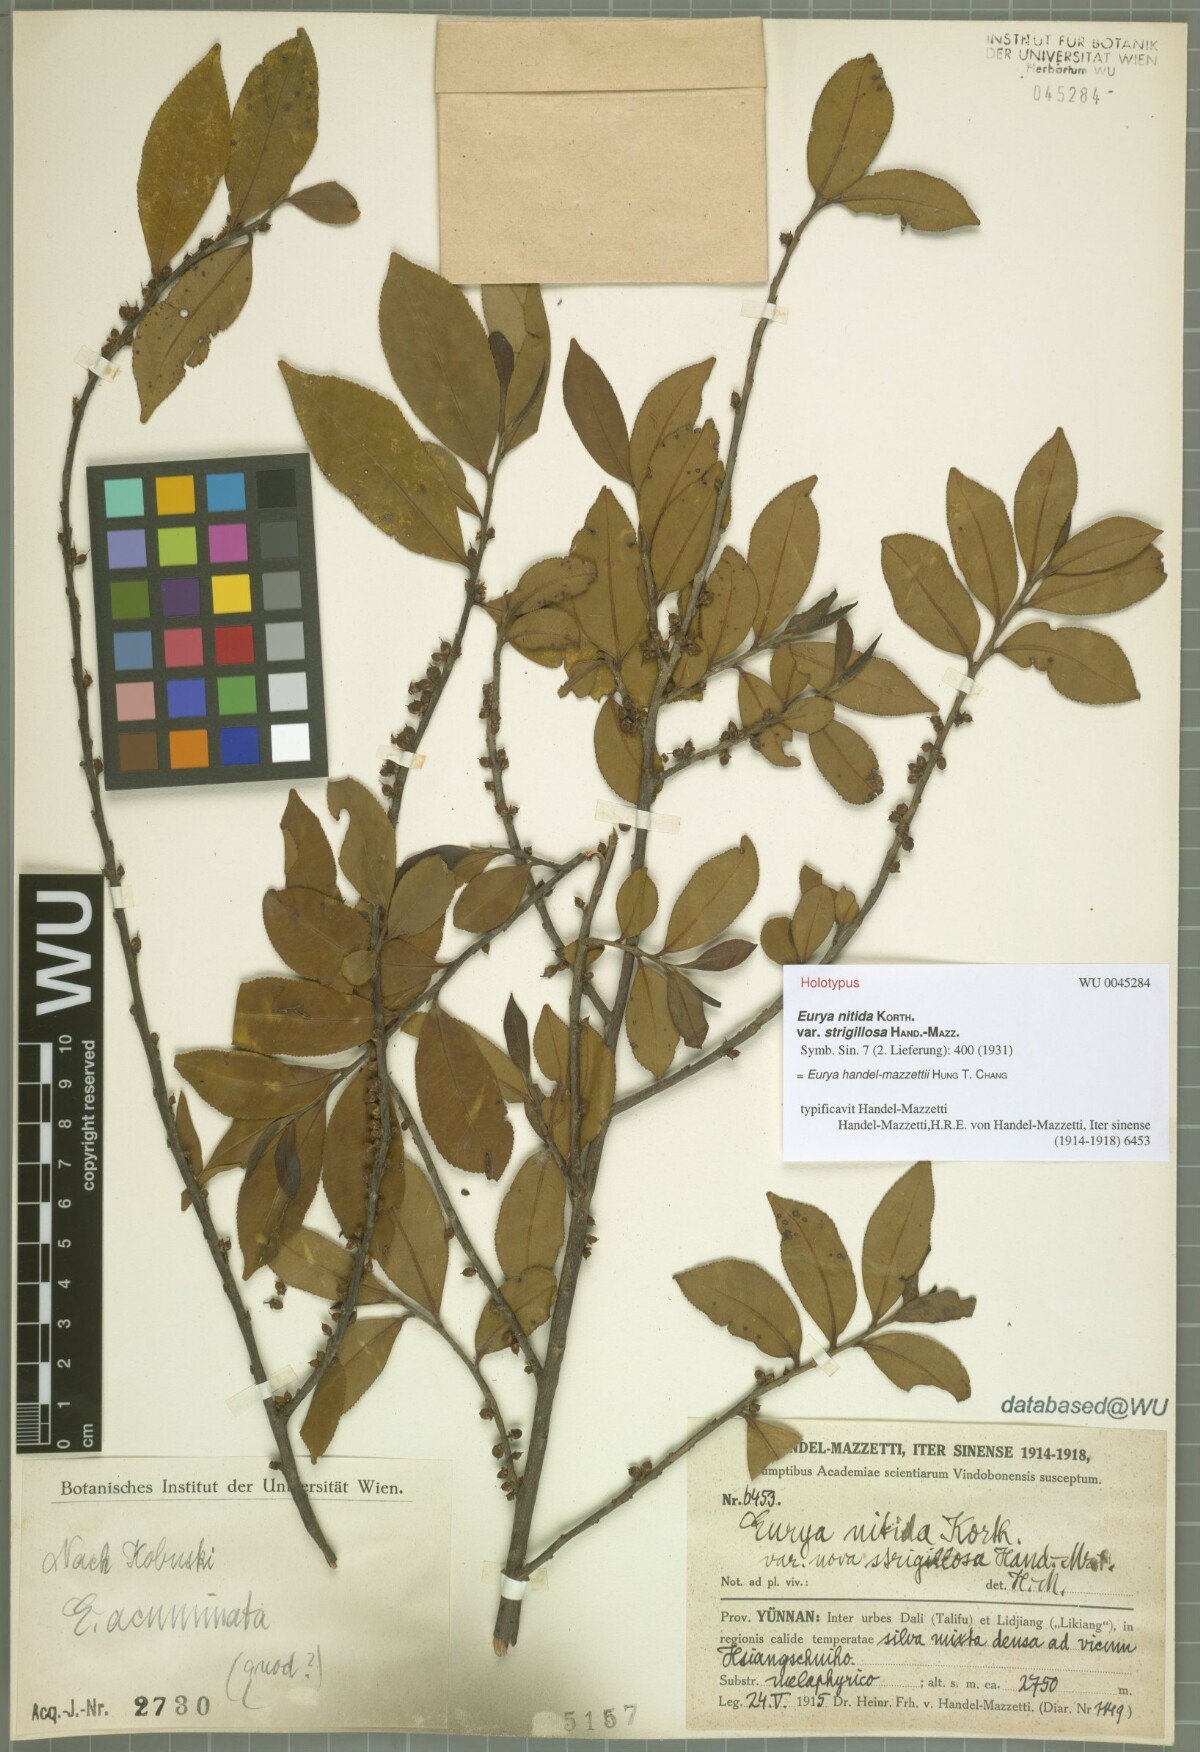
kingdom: Plantae
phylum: Tracheophyta
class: Magnoliopsida
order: Ericales
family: Pentaphylacaceae
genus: Eurya
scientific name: Eurya handel-mazzettii
